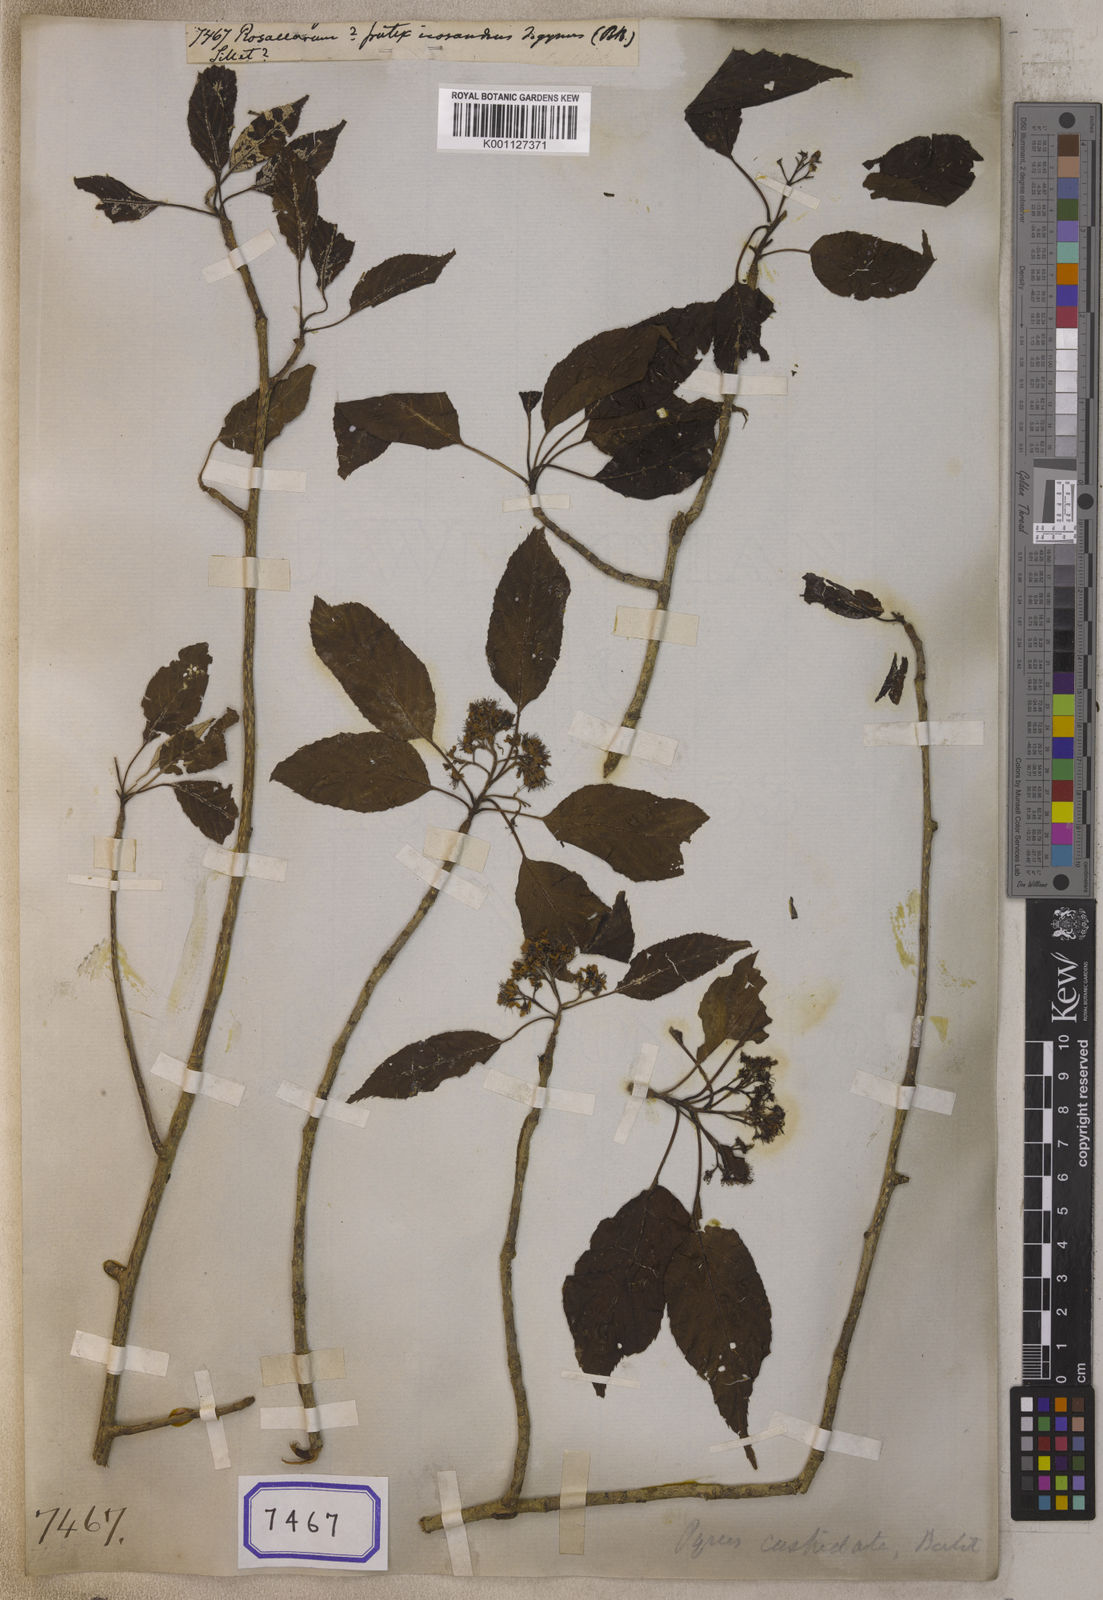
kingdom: Plantae
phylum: Tracheophyta
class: Magnoliopsida
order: Rosales
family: Rosaceae
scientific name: Rosaceae
